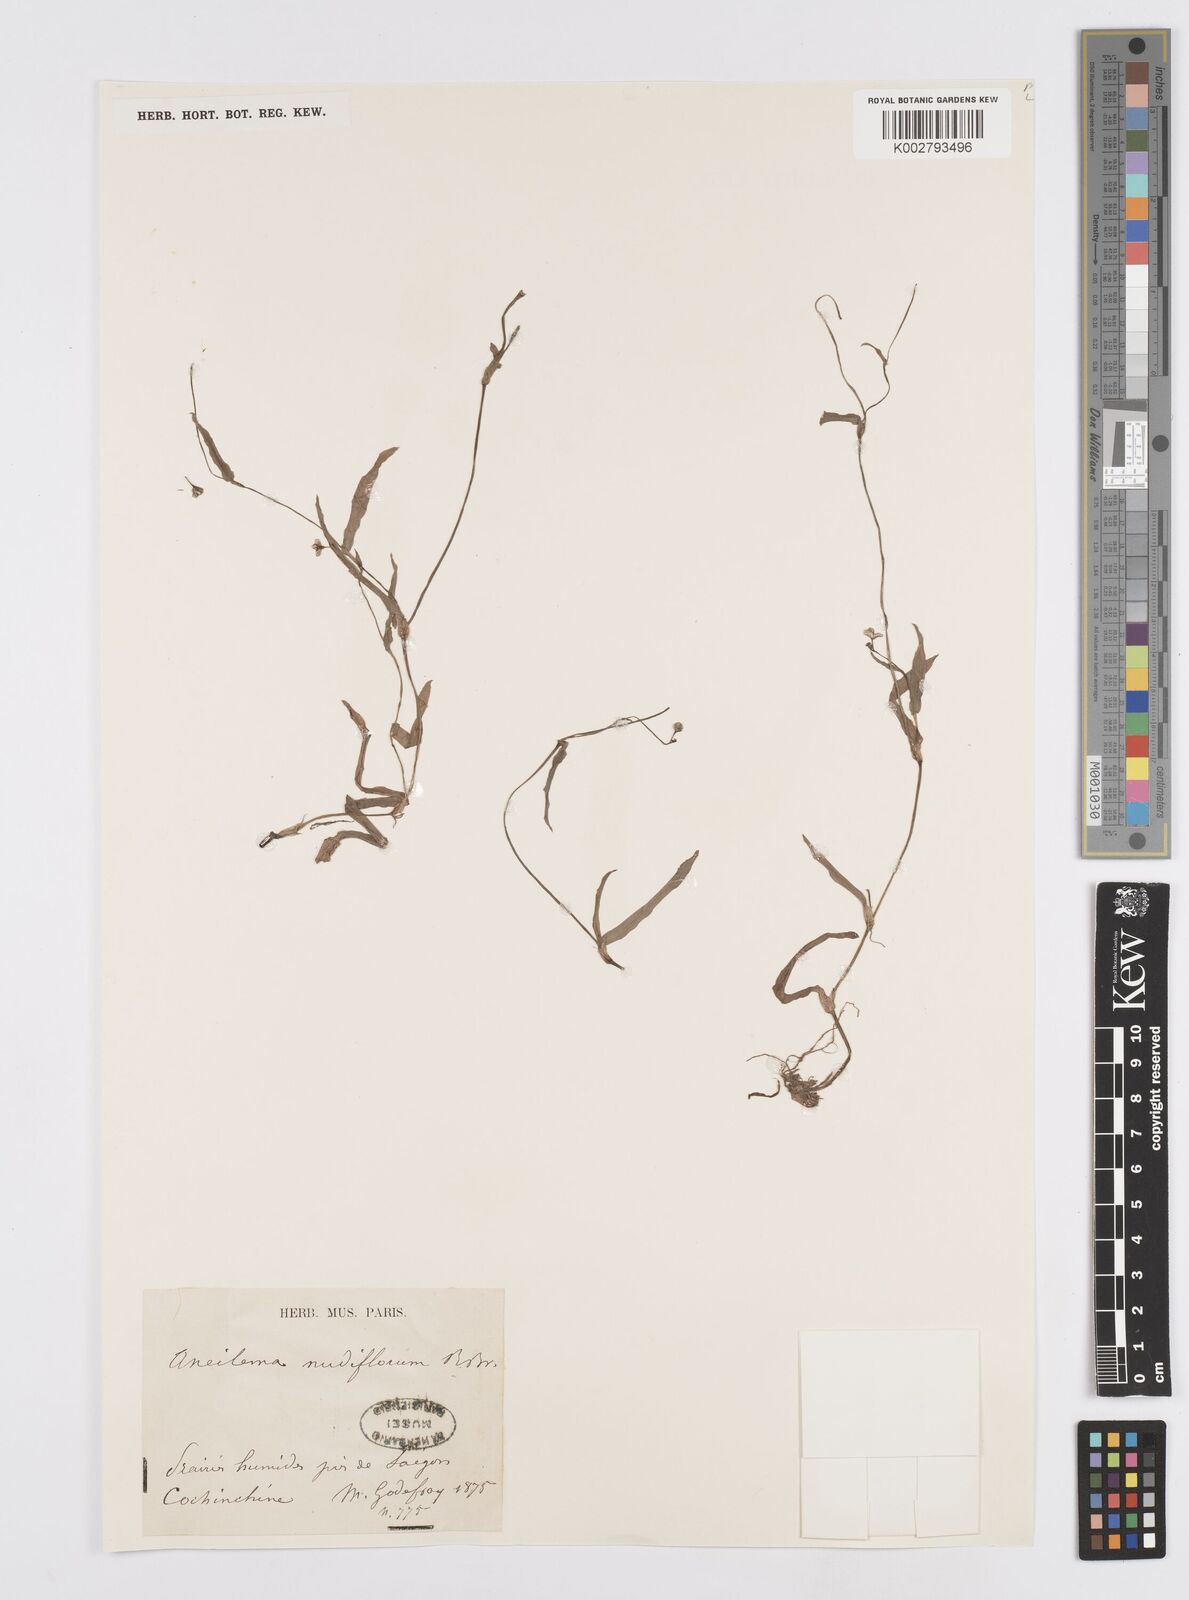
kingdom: Plantae
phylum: Tracheophyta
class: Liliopsida
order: Commelinales
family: Commelinaceae
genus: Murdannia
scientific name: Murdannia nudiflora
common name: Nakedstem dewflower
